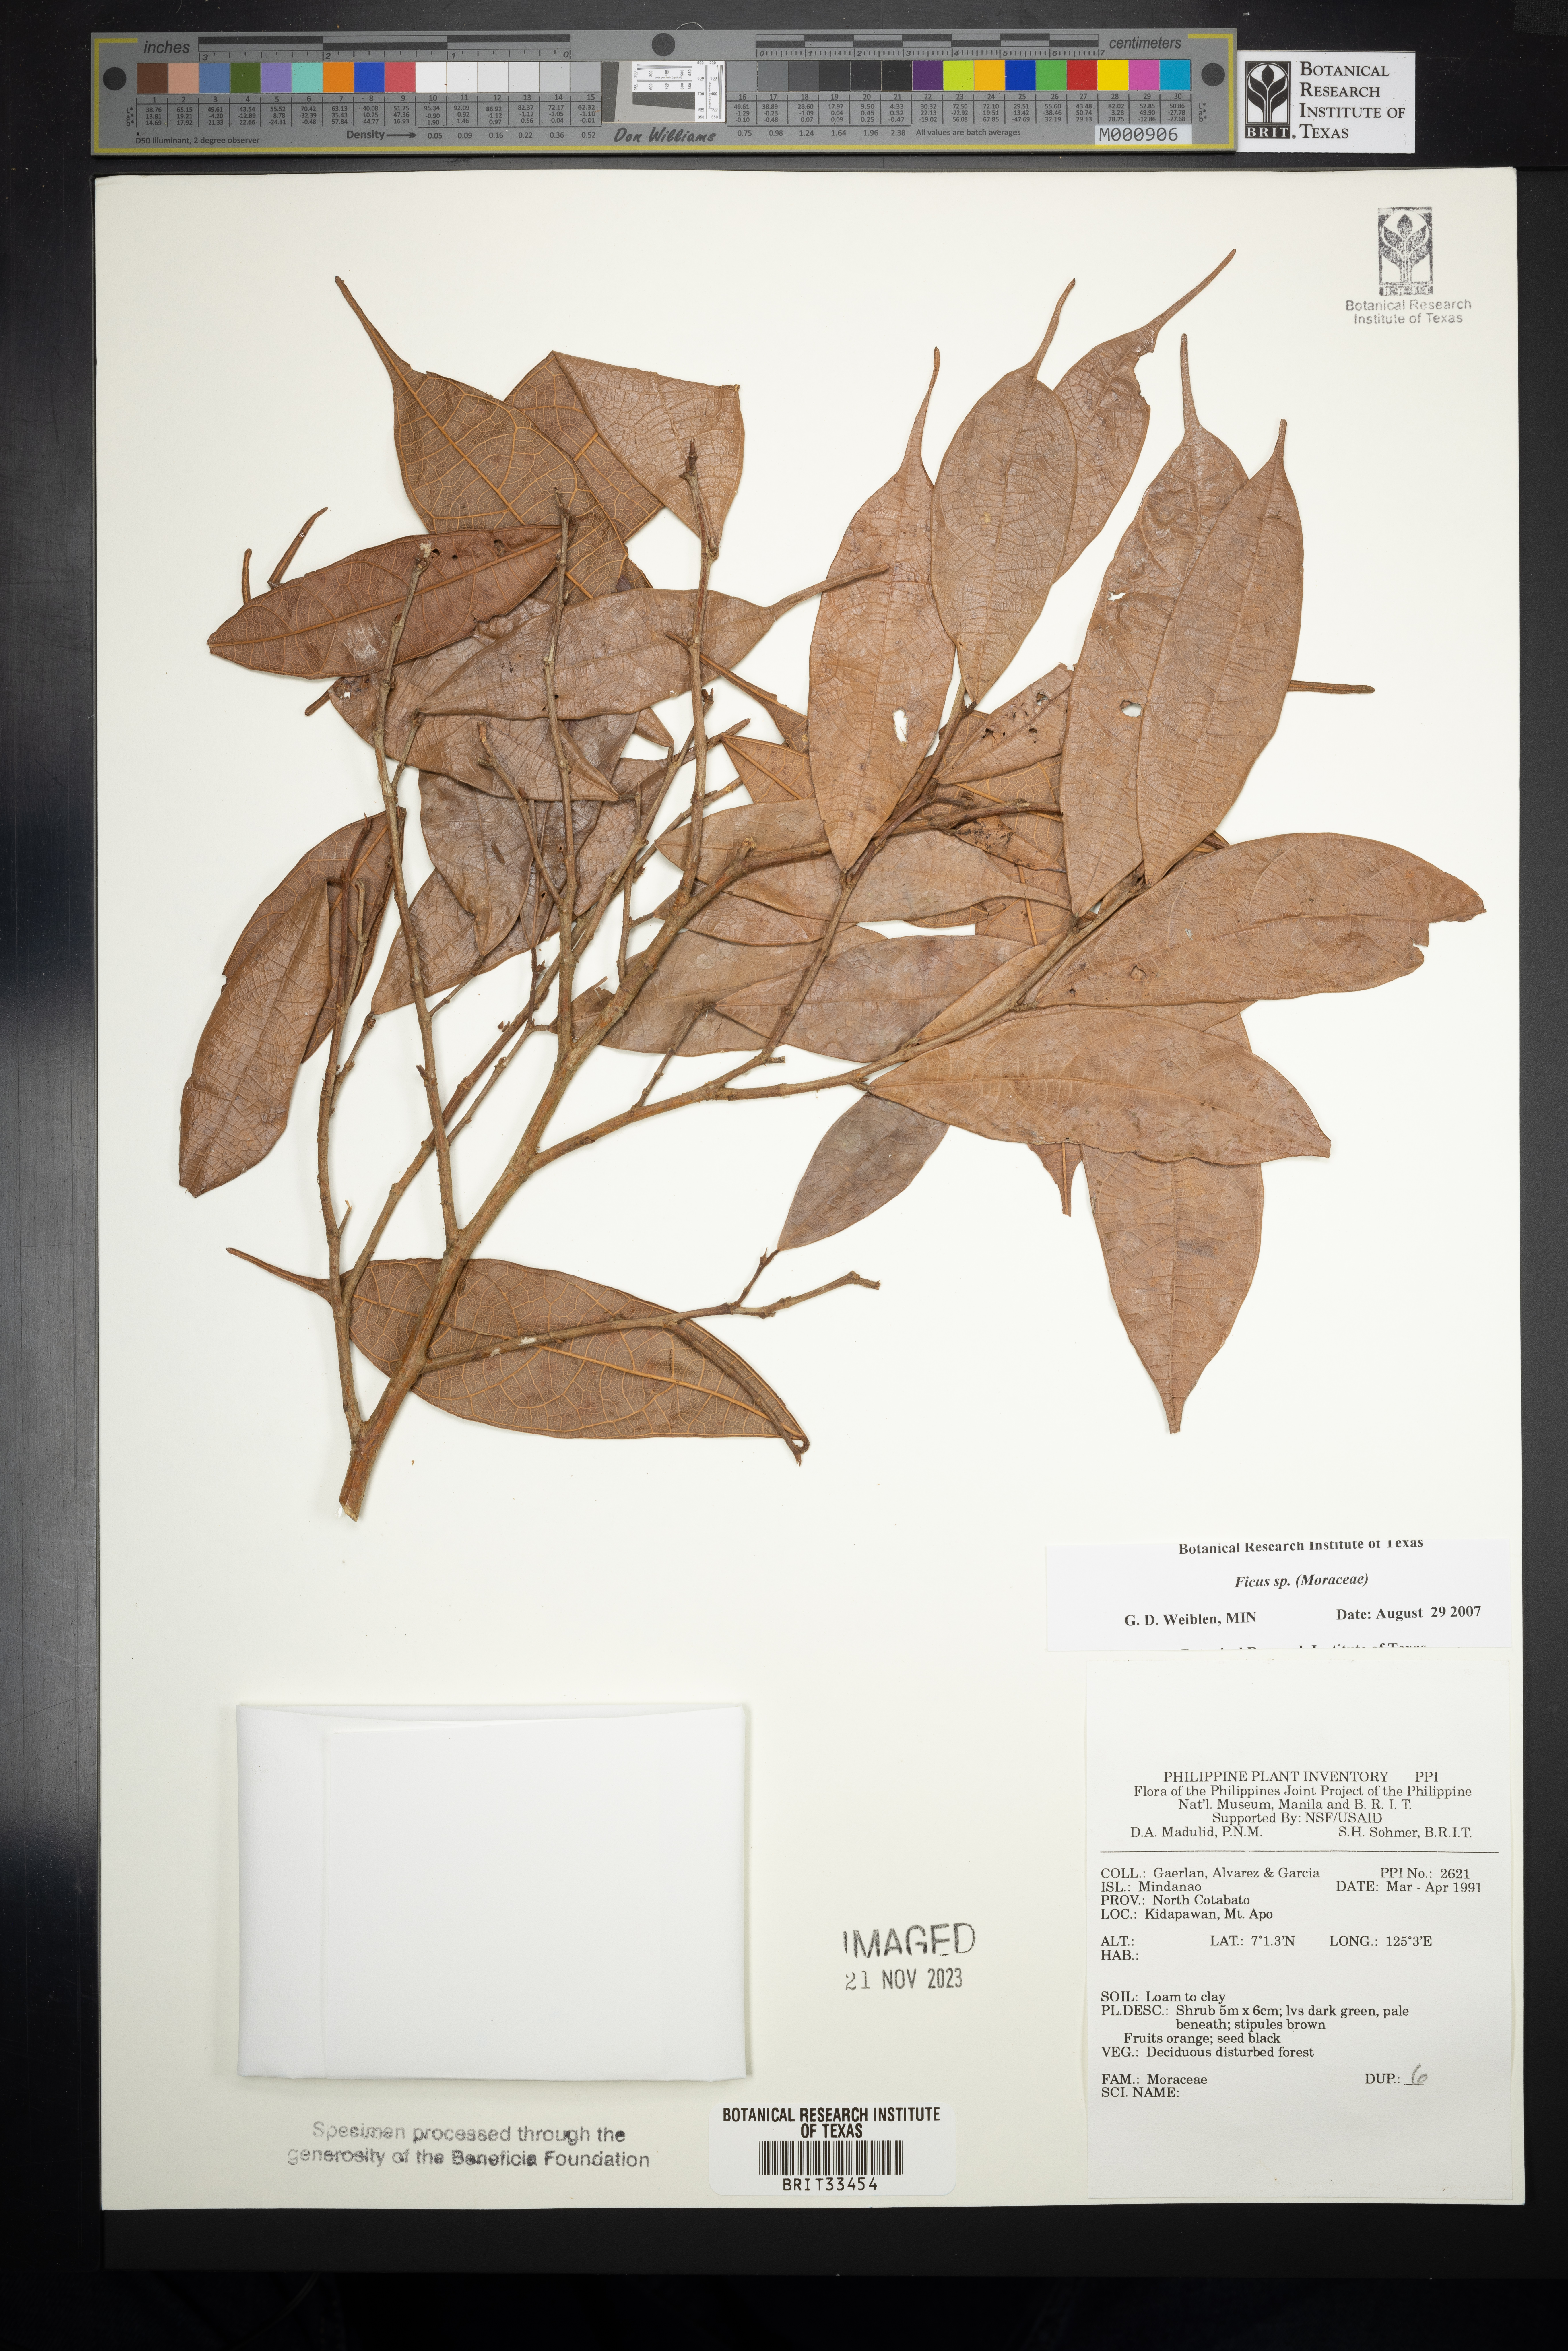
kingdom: Plantae
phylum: Tracheophyta
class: Magnoliopsida
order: Rosales
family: Moraceae
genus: Ficus
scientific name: Ficus
